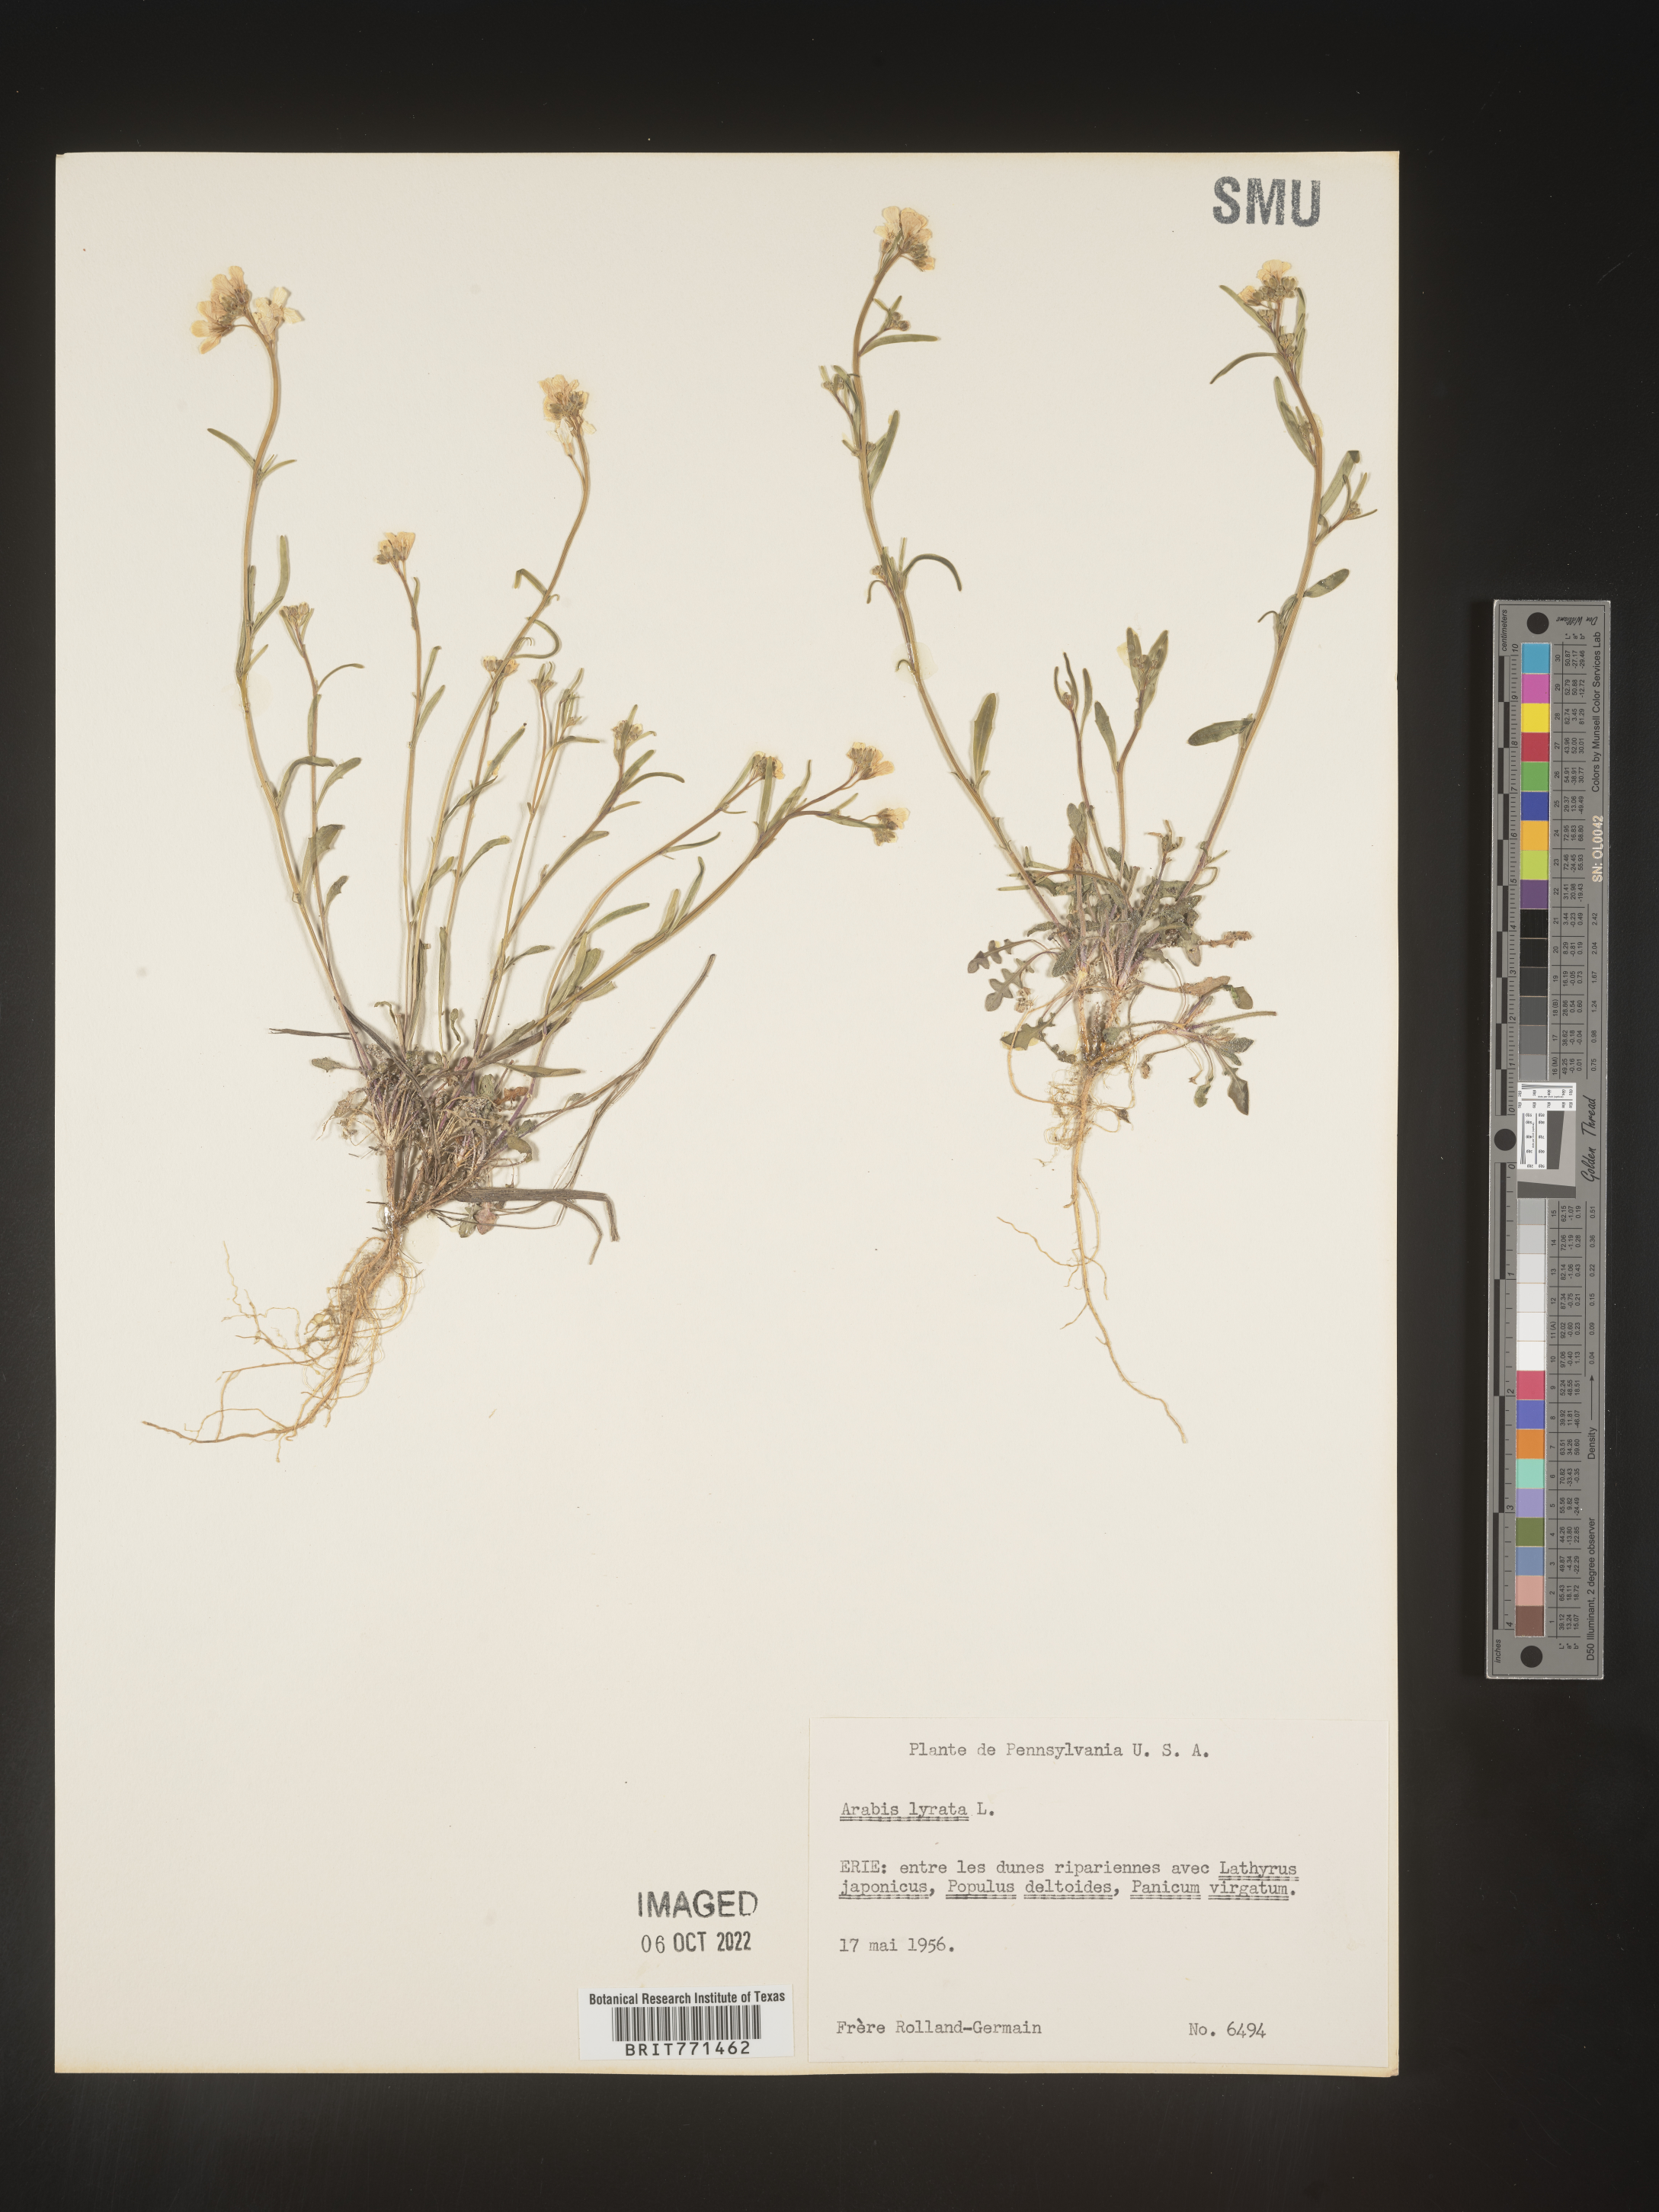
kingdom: Plantae
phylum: Tracheophyta
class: Magnoliopsida
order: Brassicales
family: Brassicaceae
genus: Arabidopsis
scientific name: Arabidopsis lyrata
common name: Lyrate rockcress
